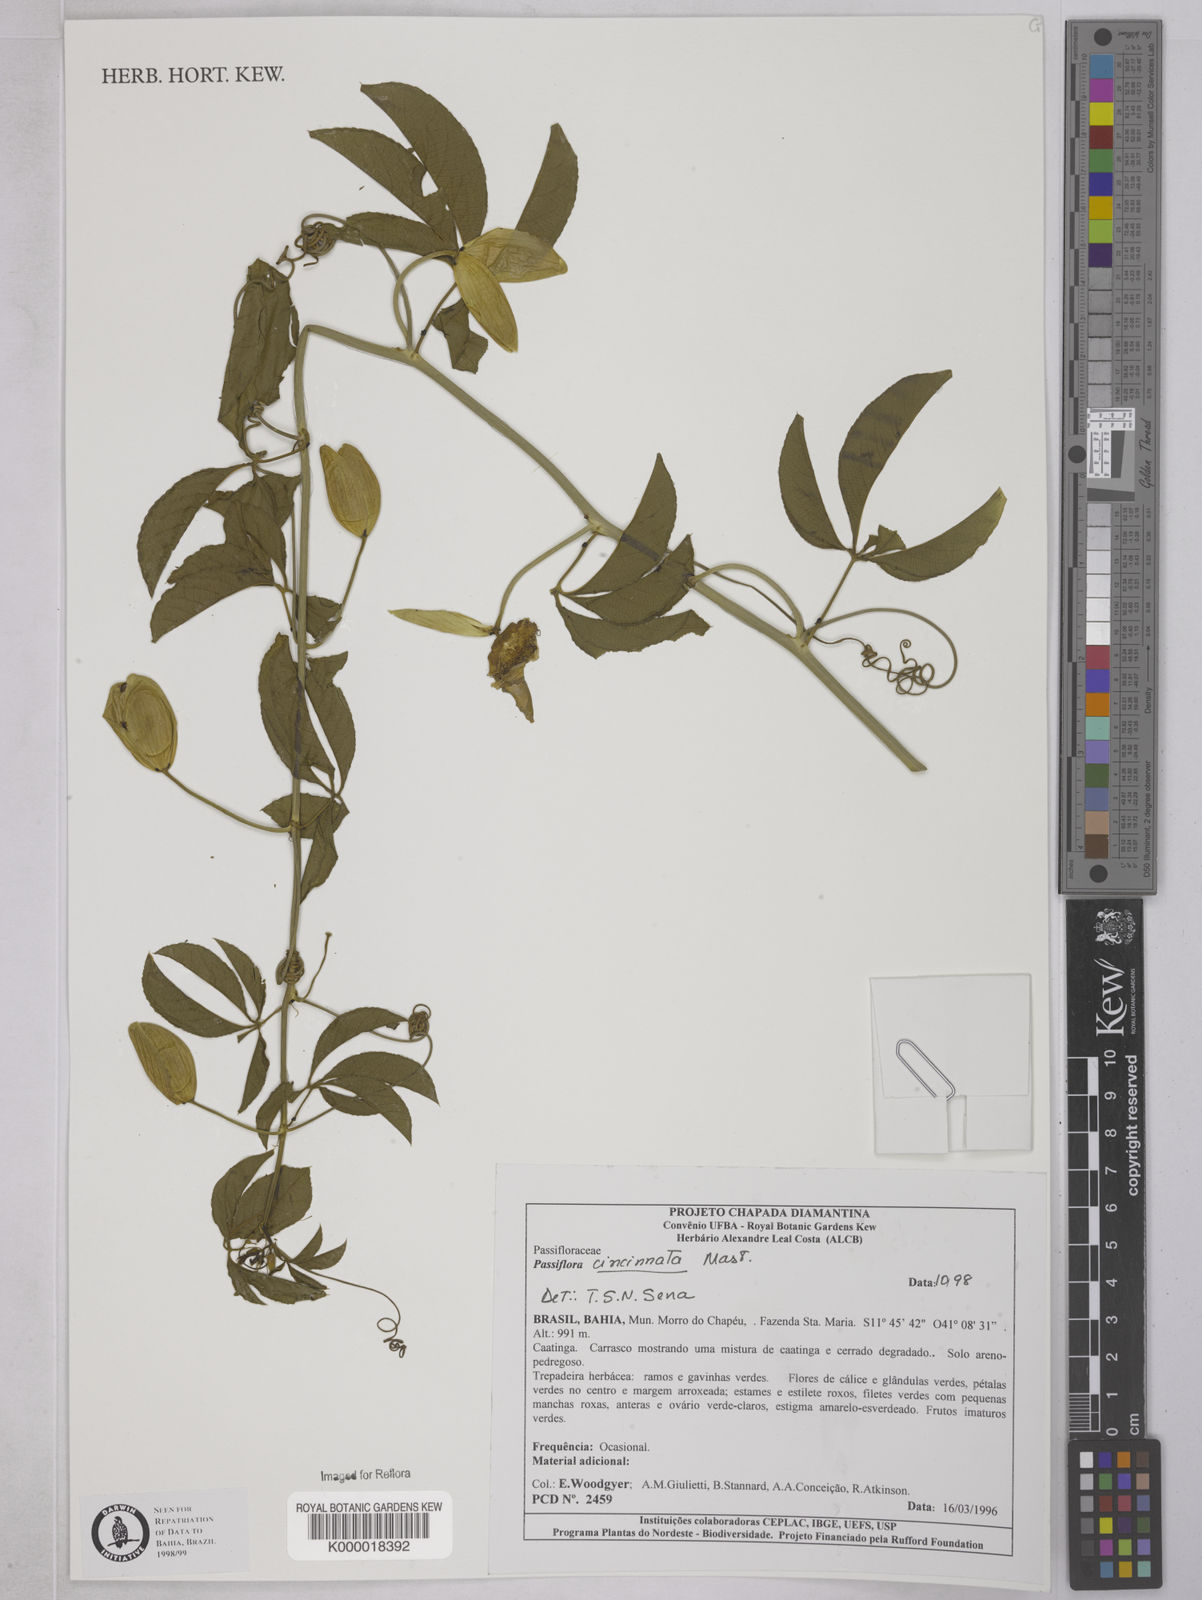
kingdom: Plantae
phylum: Tracheophyta
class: Magnoliopsida
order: Malpighiales
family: Passifloraceae
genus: Passiflora
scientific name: Passiflora cincinnata
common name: Crato passionvine
